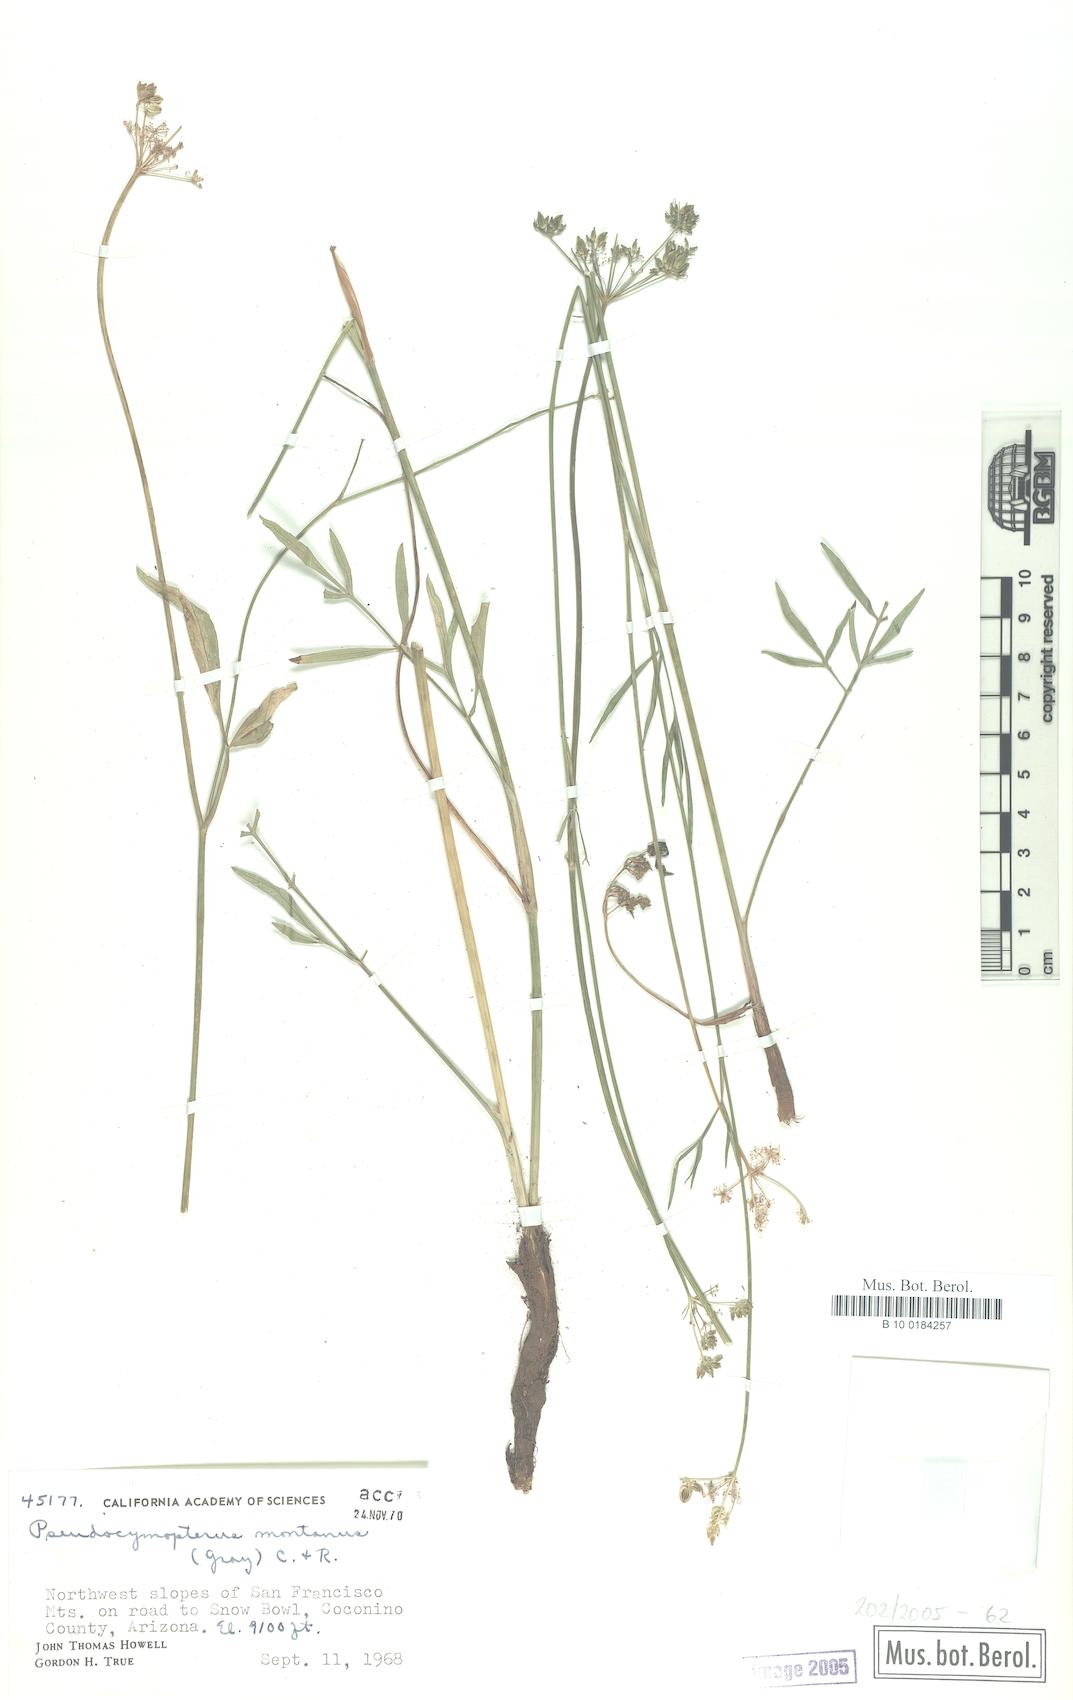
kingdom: Plantae
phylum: Tracheophyta
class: Magnoliopsida
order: Apiales
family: Apiaceae
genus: Cymopterus
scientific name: Cymopterus lemmonii
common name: Lemmon's spring-parsley
